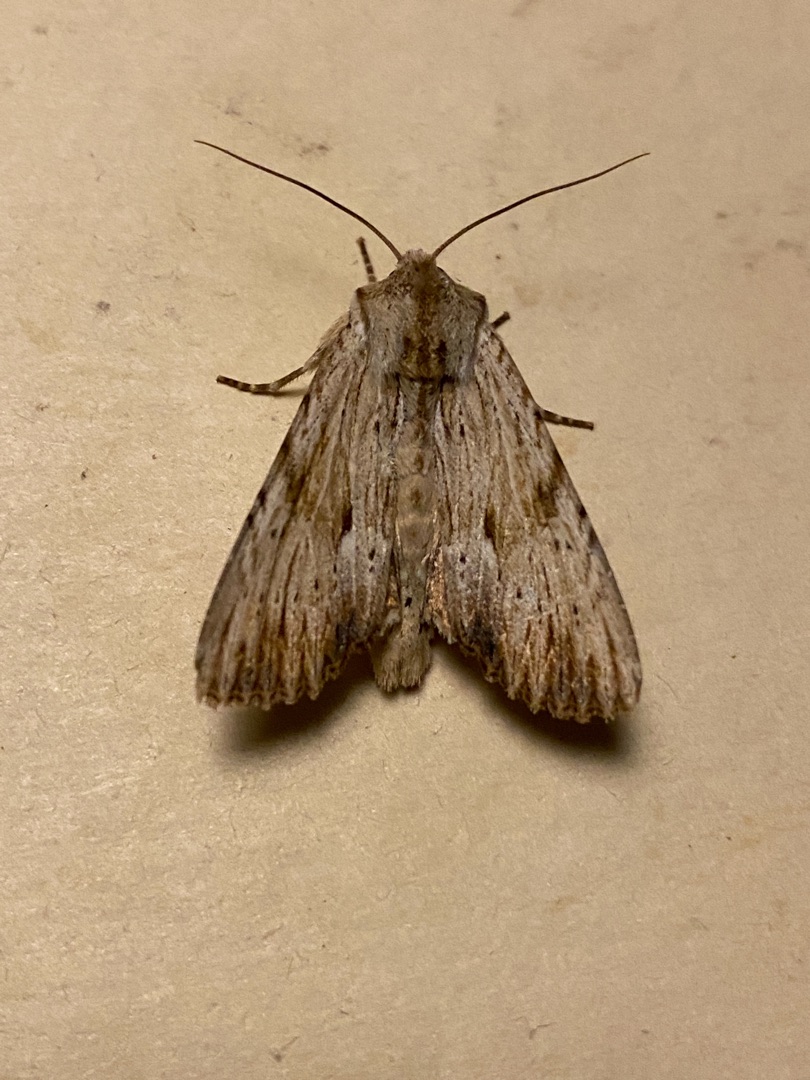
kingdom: Animalia
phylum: Arthropoda
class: Insecta
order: Lepidoptera
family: Noctuidae
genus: Apamea
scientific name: Apamea lithoxylaea
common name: Hvidlig stængelugle
